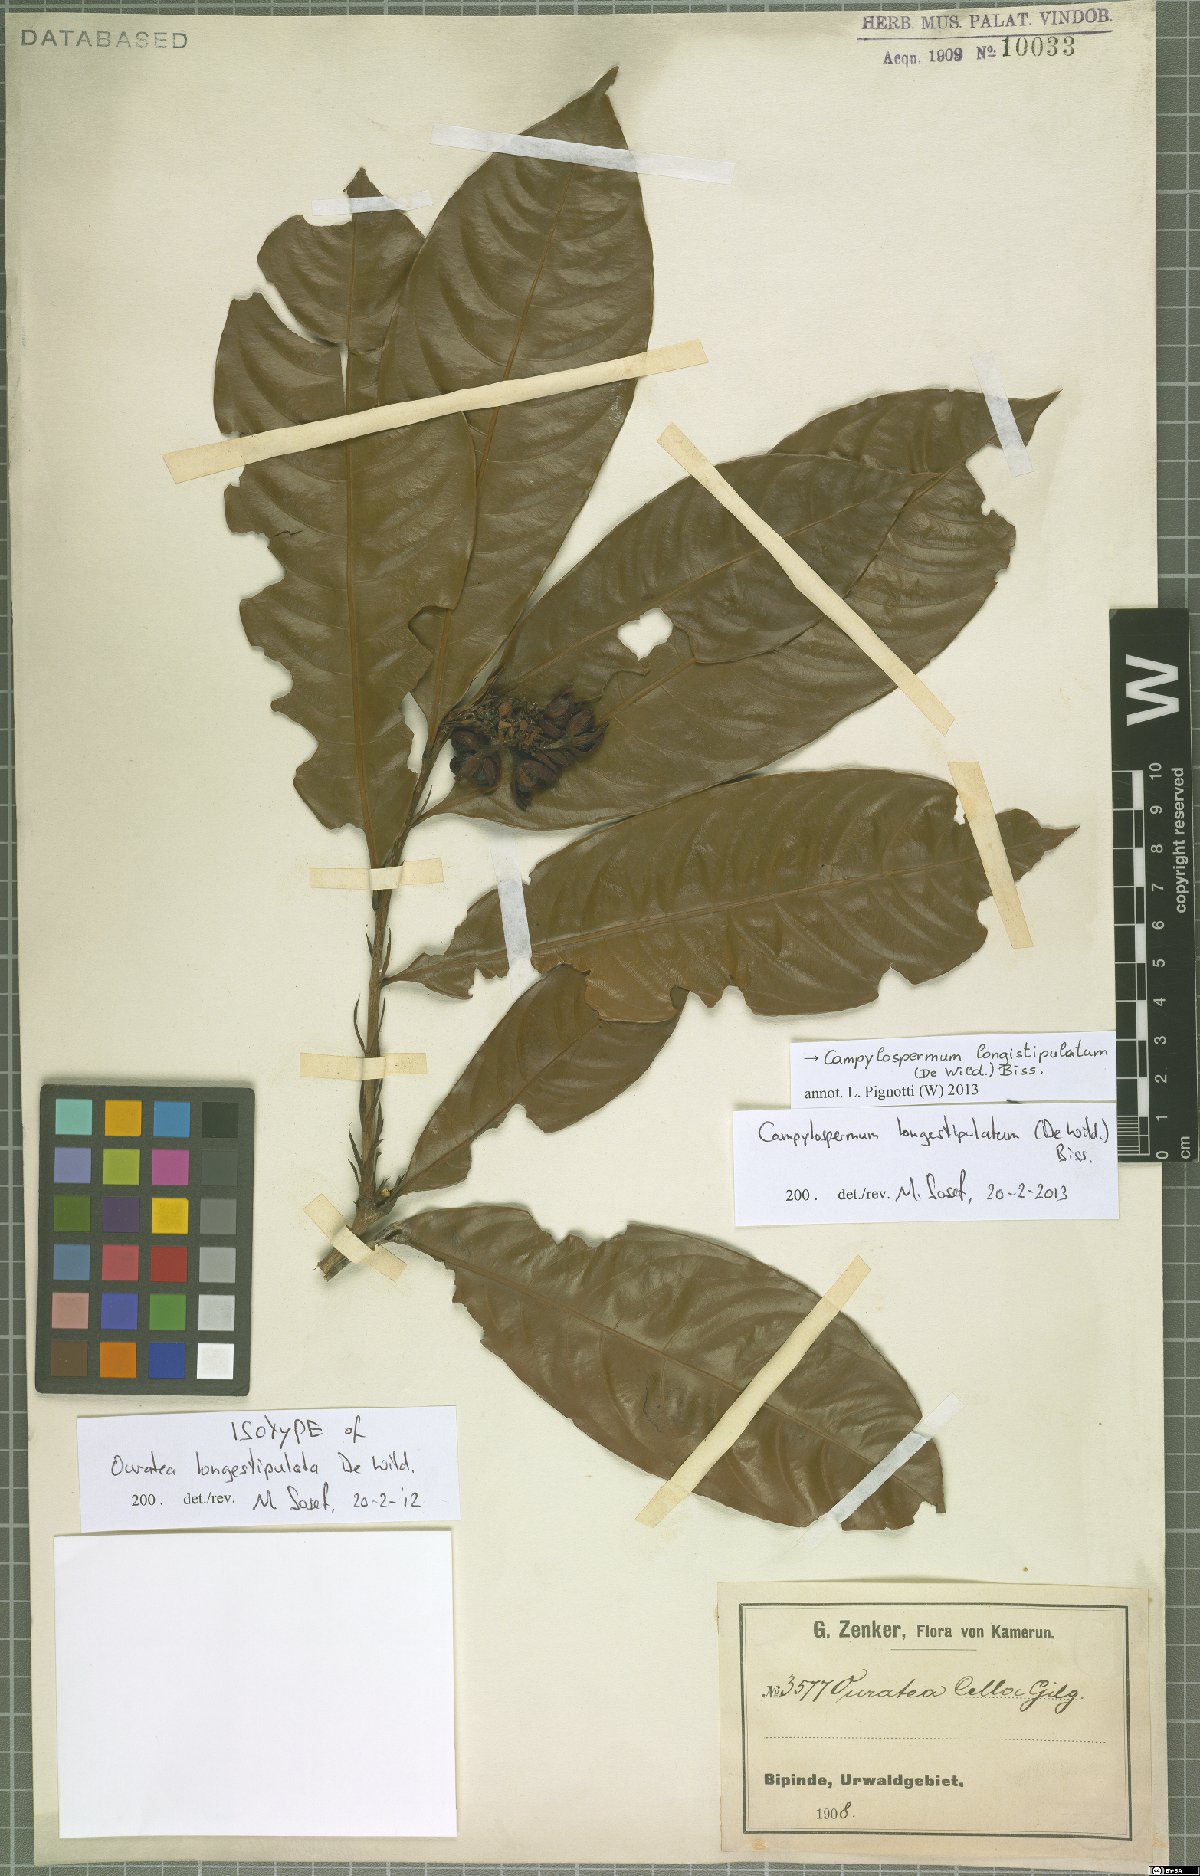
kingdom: Plantae
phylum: Tracheophyta
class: Magnoliopsida
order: Malpighiales
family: Ochnaceae
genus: Campylospermum
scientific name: Campylospermum longestipulatum
